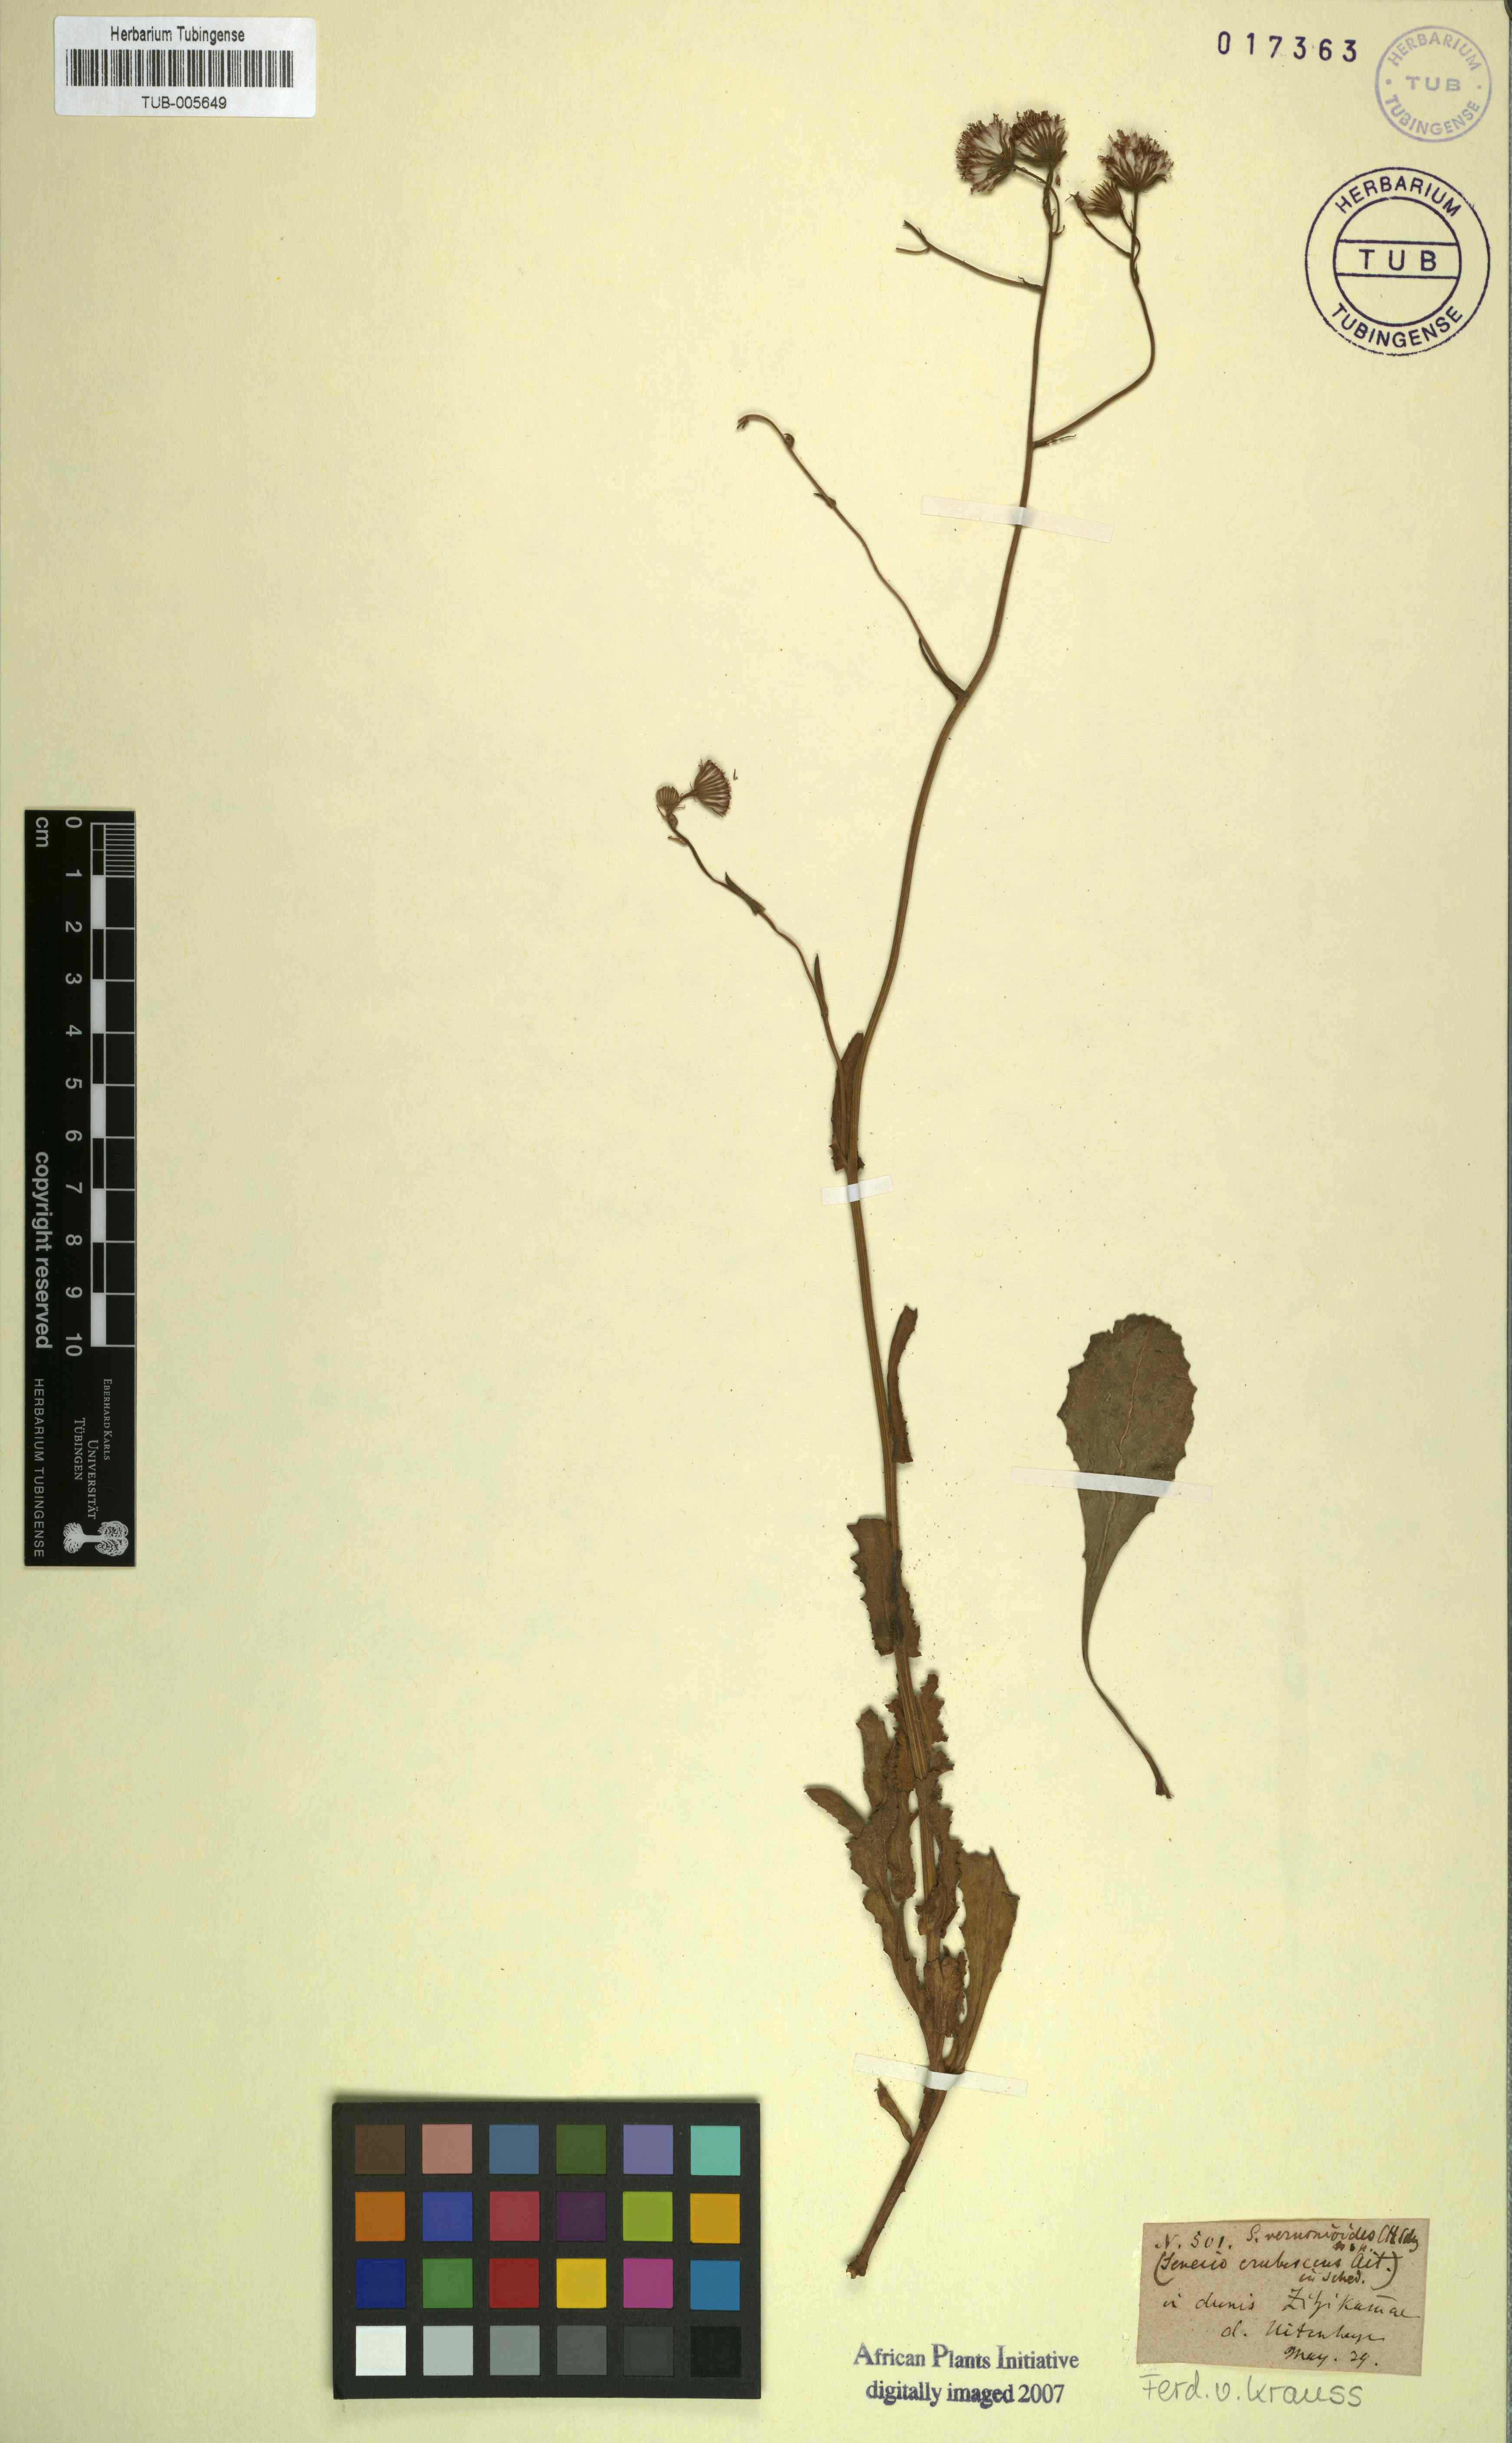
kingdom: Plantae
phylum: Tracheophyta
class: Magnoliopsida
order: Asterales
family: Asteraceae
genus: Senecio
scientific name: Senecio erubescens
